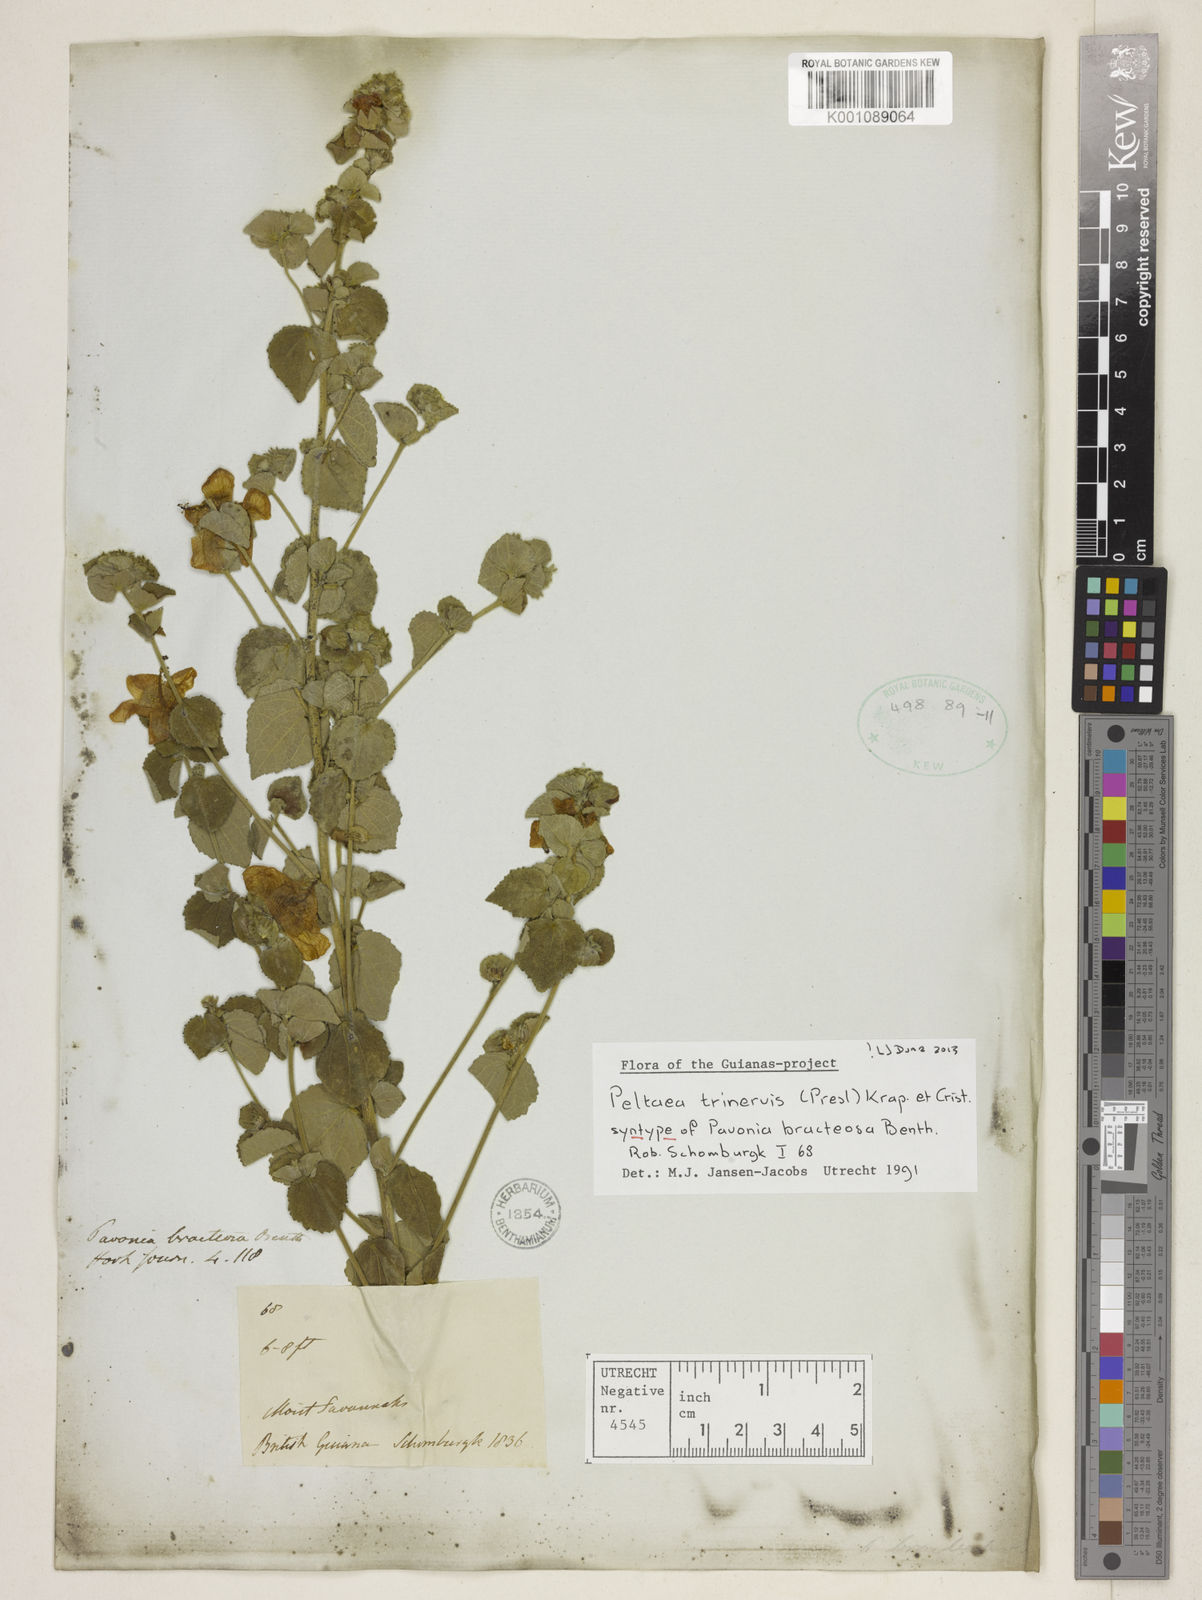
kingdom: Plantae
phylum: Tracheophyta
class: Magnoliopsida
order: Malvales
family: Malvaceae
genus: Peltaea
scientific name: Peltaea
